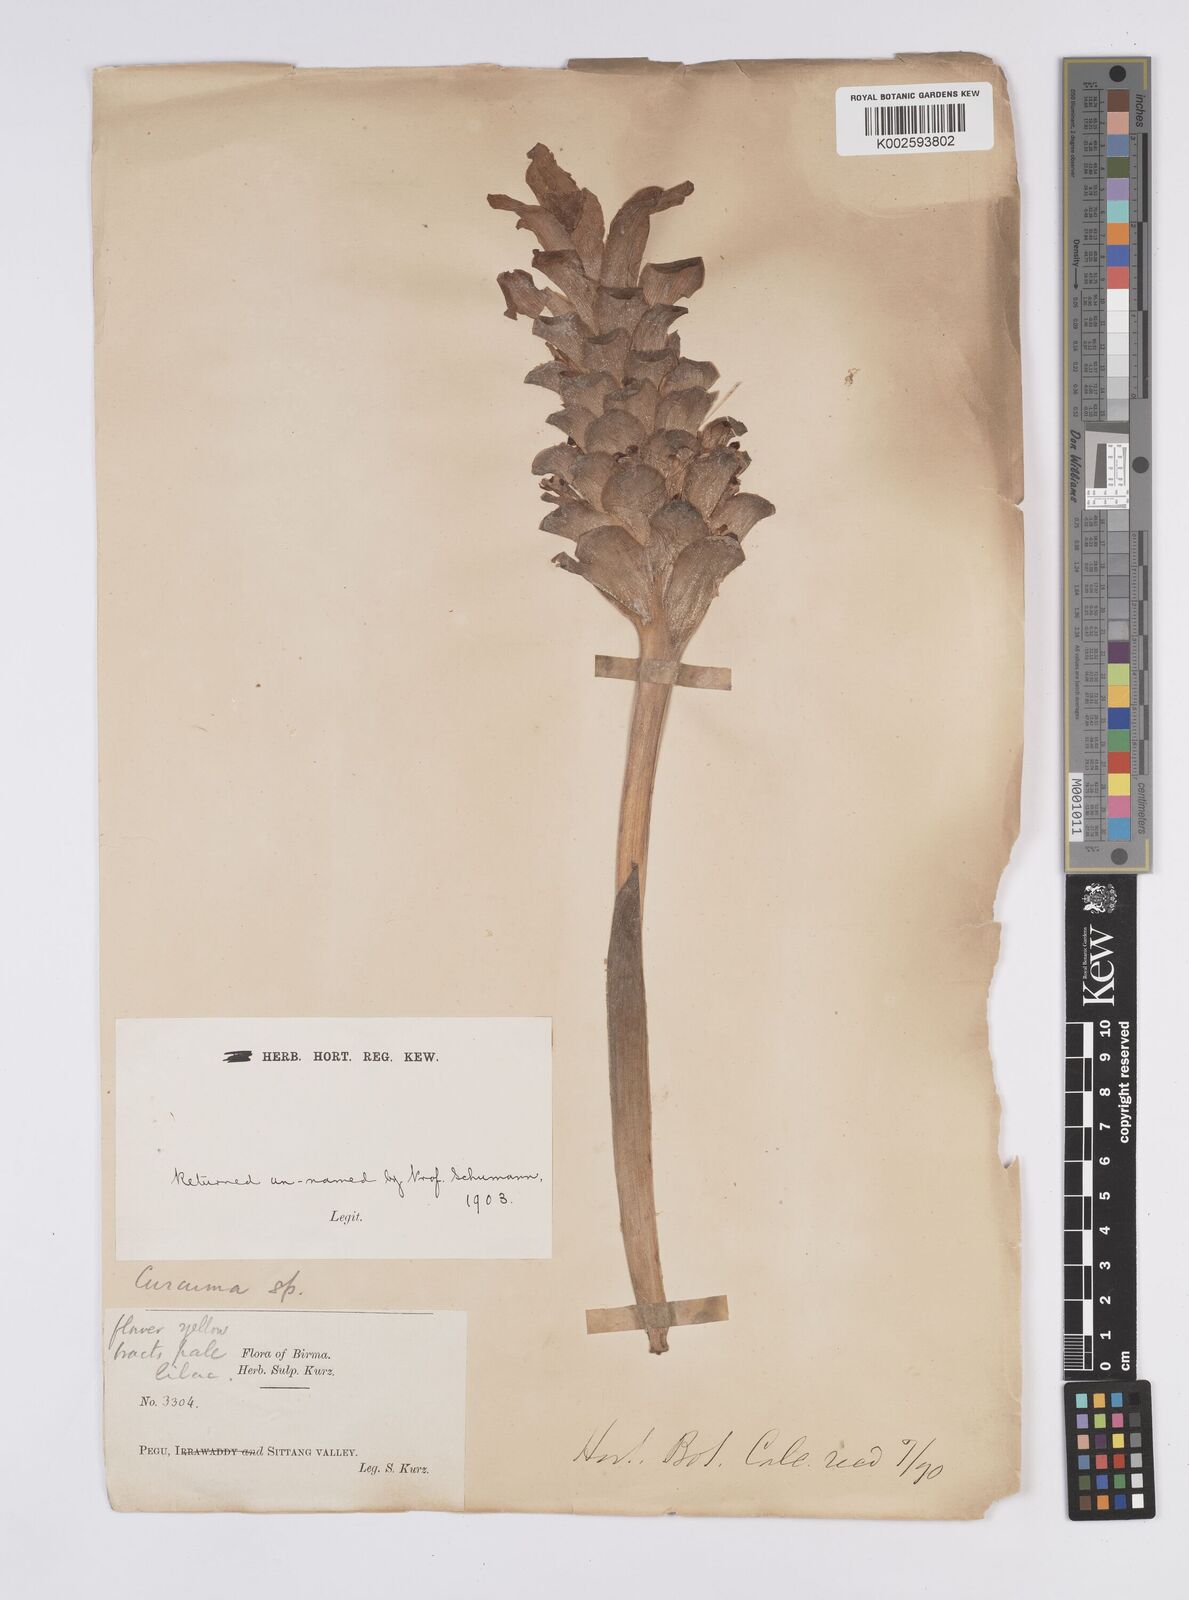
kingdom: Plantae
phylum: Tracheophyta
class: Liliopsida
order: Zingiberales
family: Zingiberaceae
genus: Curcuma
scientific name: Curcuma
